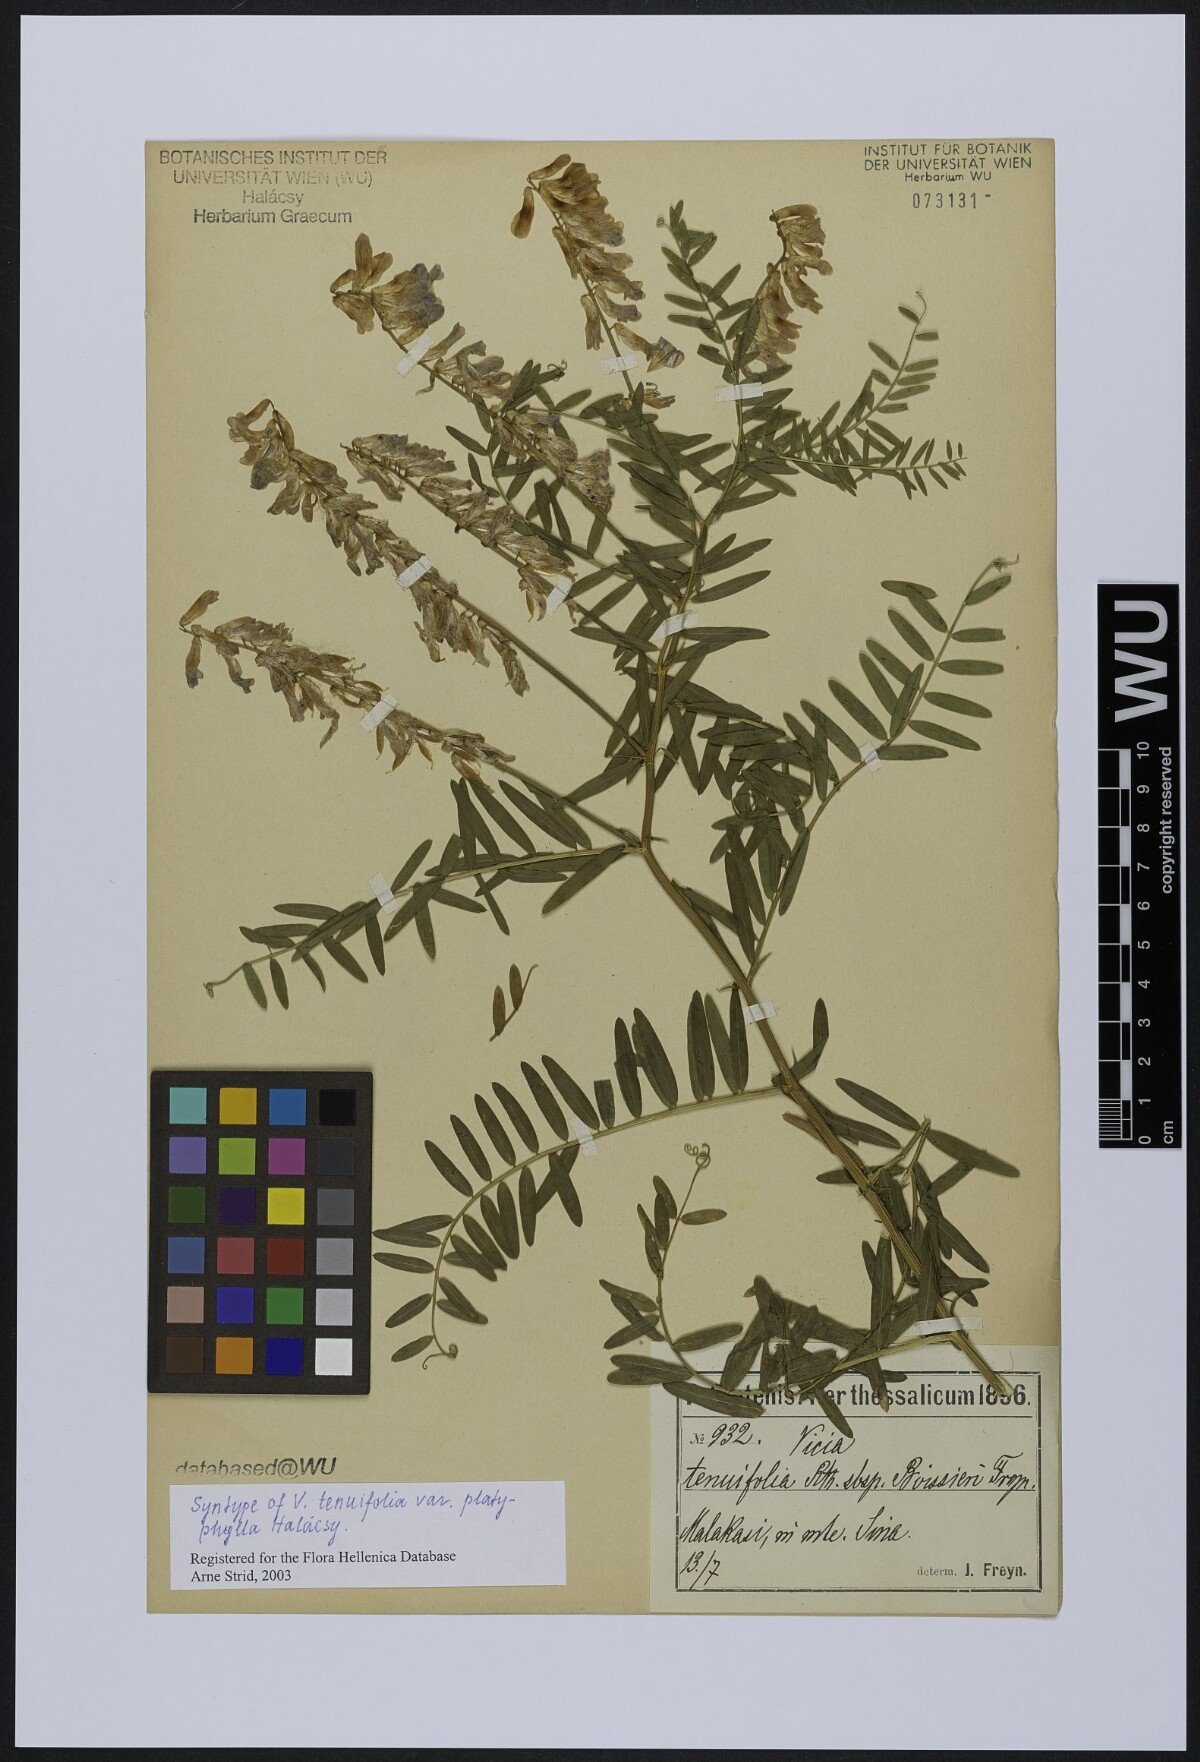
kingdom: Plantae
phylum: Tracheophyta
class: Magnoliopsida
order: Fabales
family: Fabaceae
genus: Vicia
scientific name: Vicia tenuifolia
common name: Fine-leaved vetch
